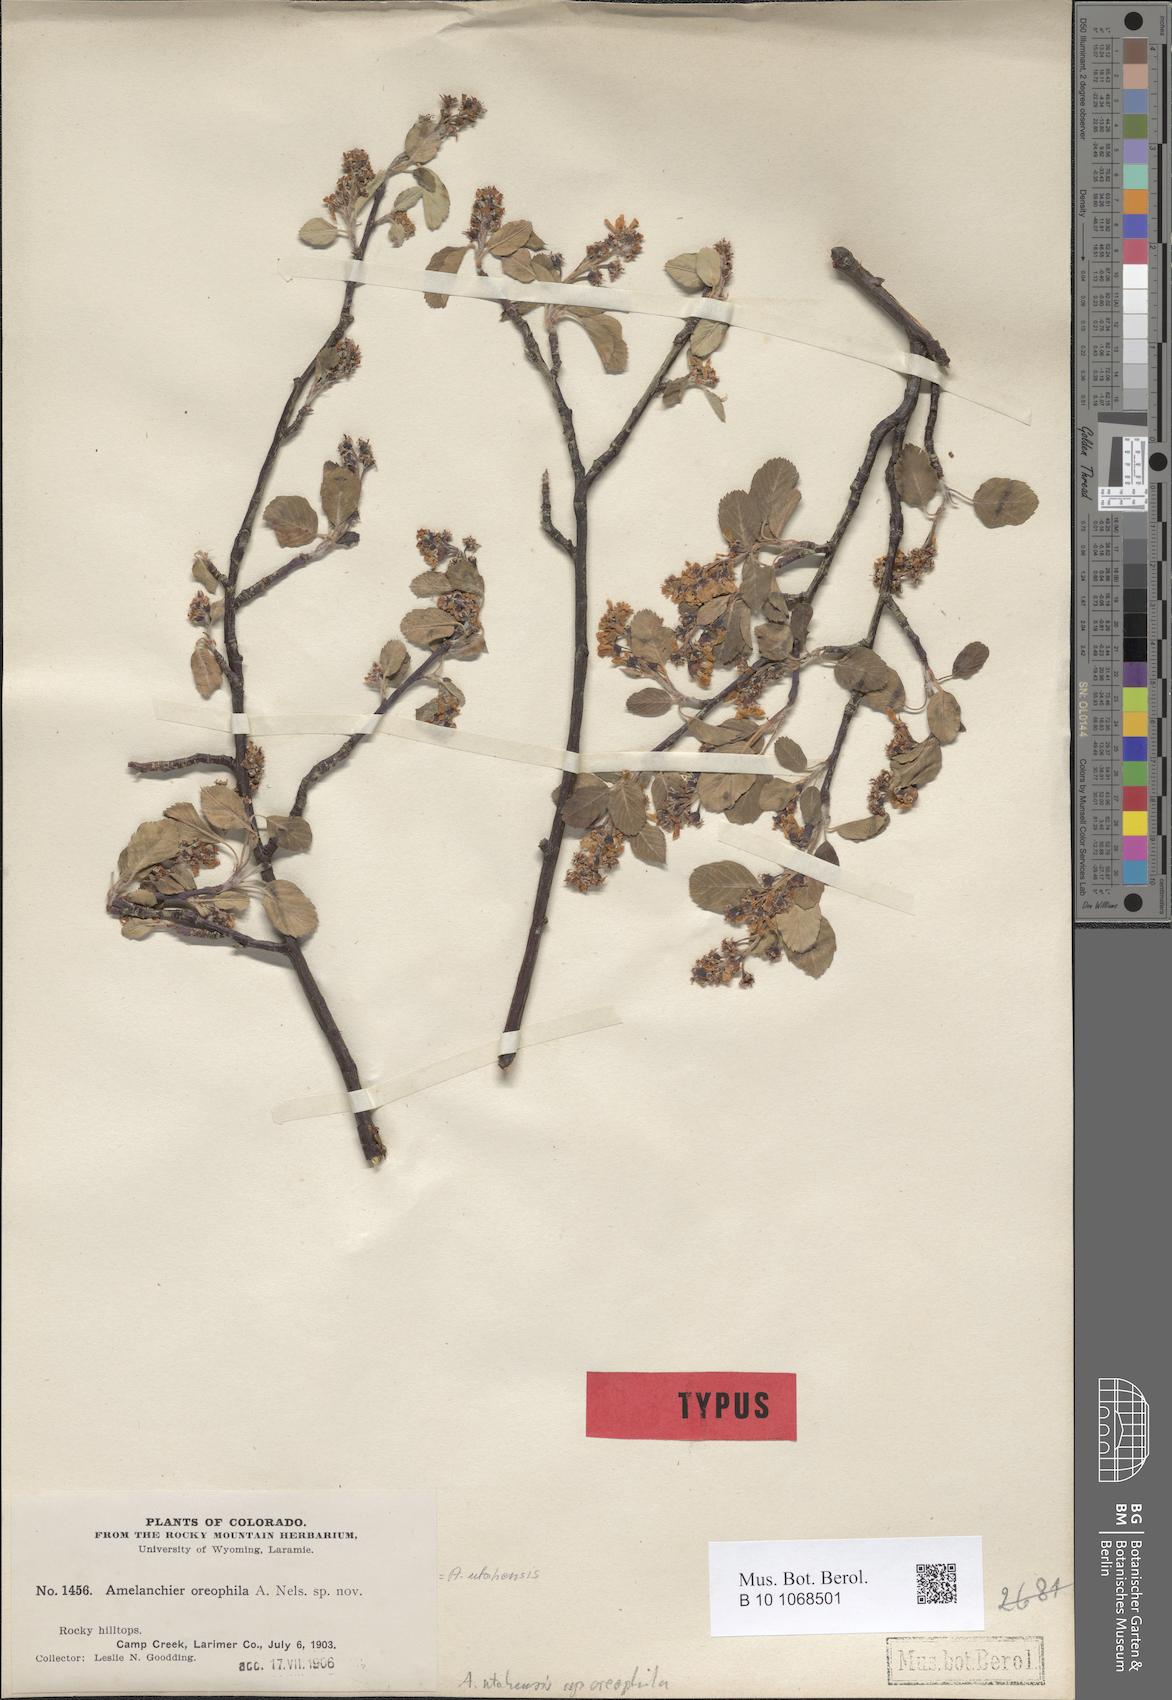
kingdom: Plantae
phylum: Tracheophyta
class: Magnoliopsida
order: Rosales
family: Rosaceae
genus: Amelanchier
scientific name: Amelanchier utahensis
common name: Utah serviceberry
